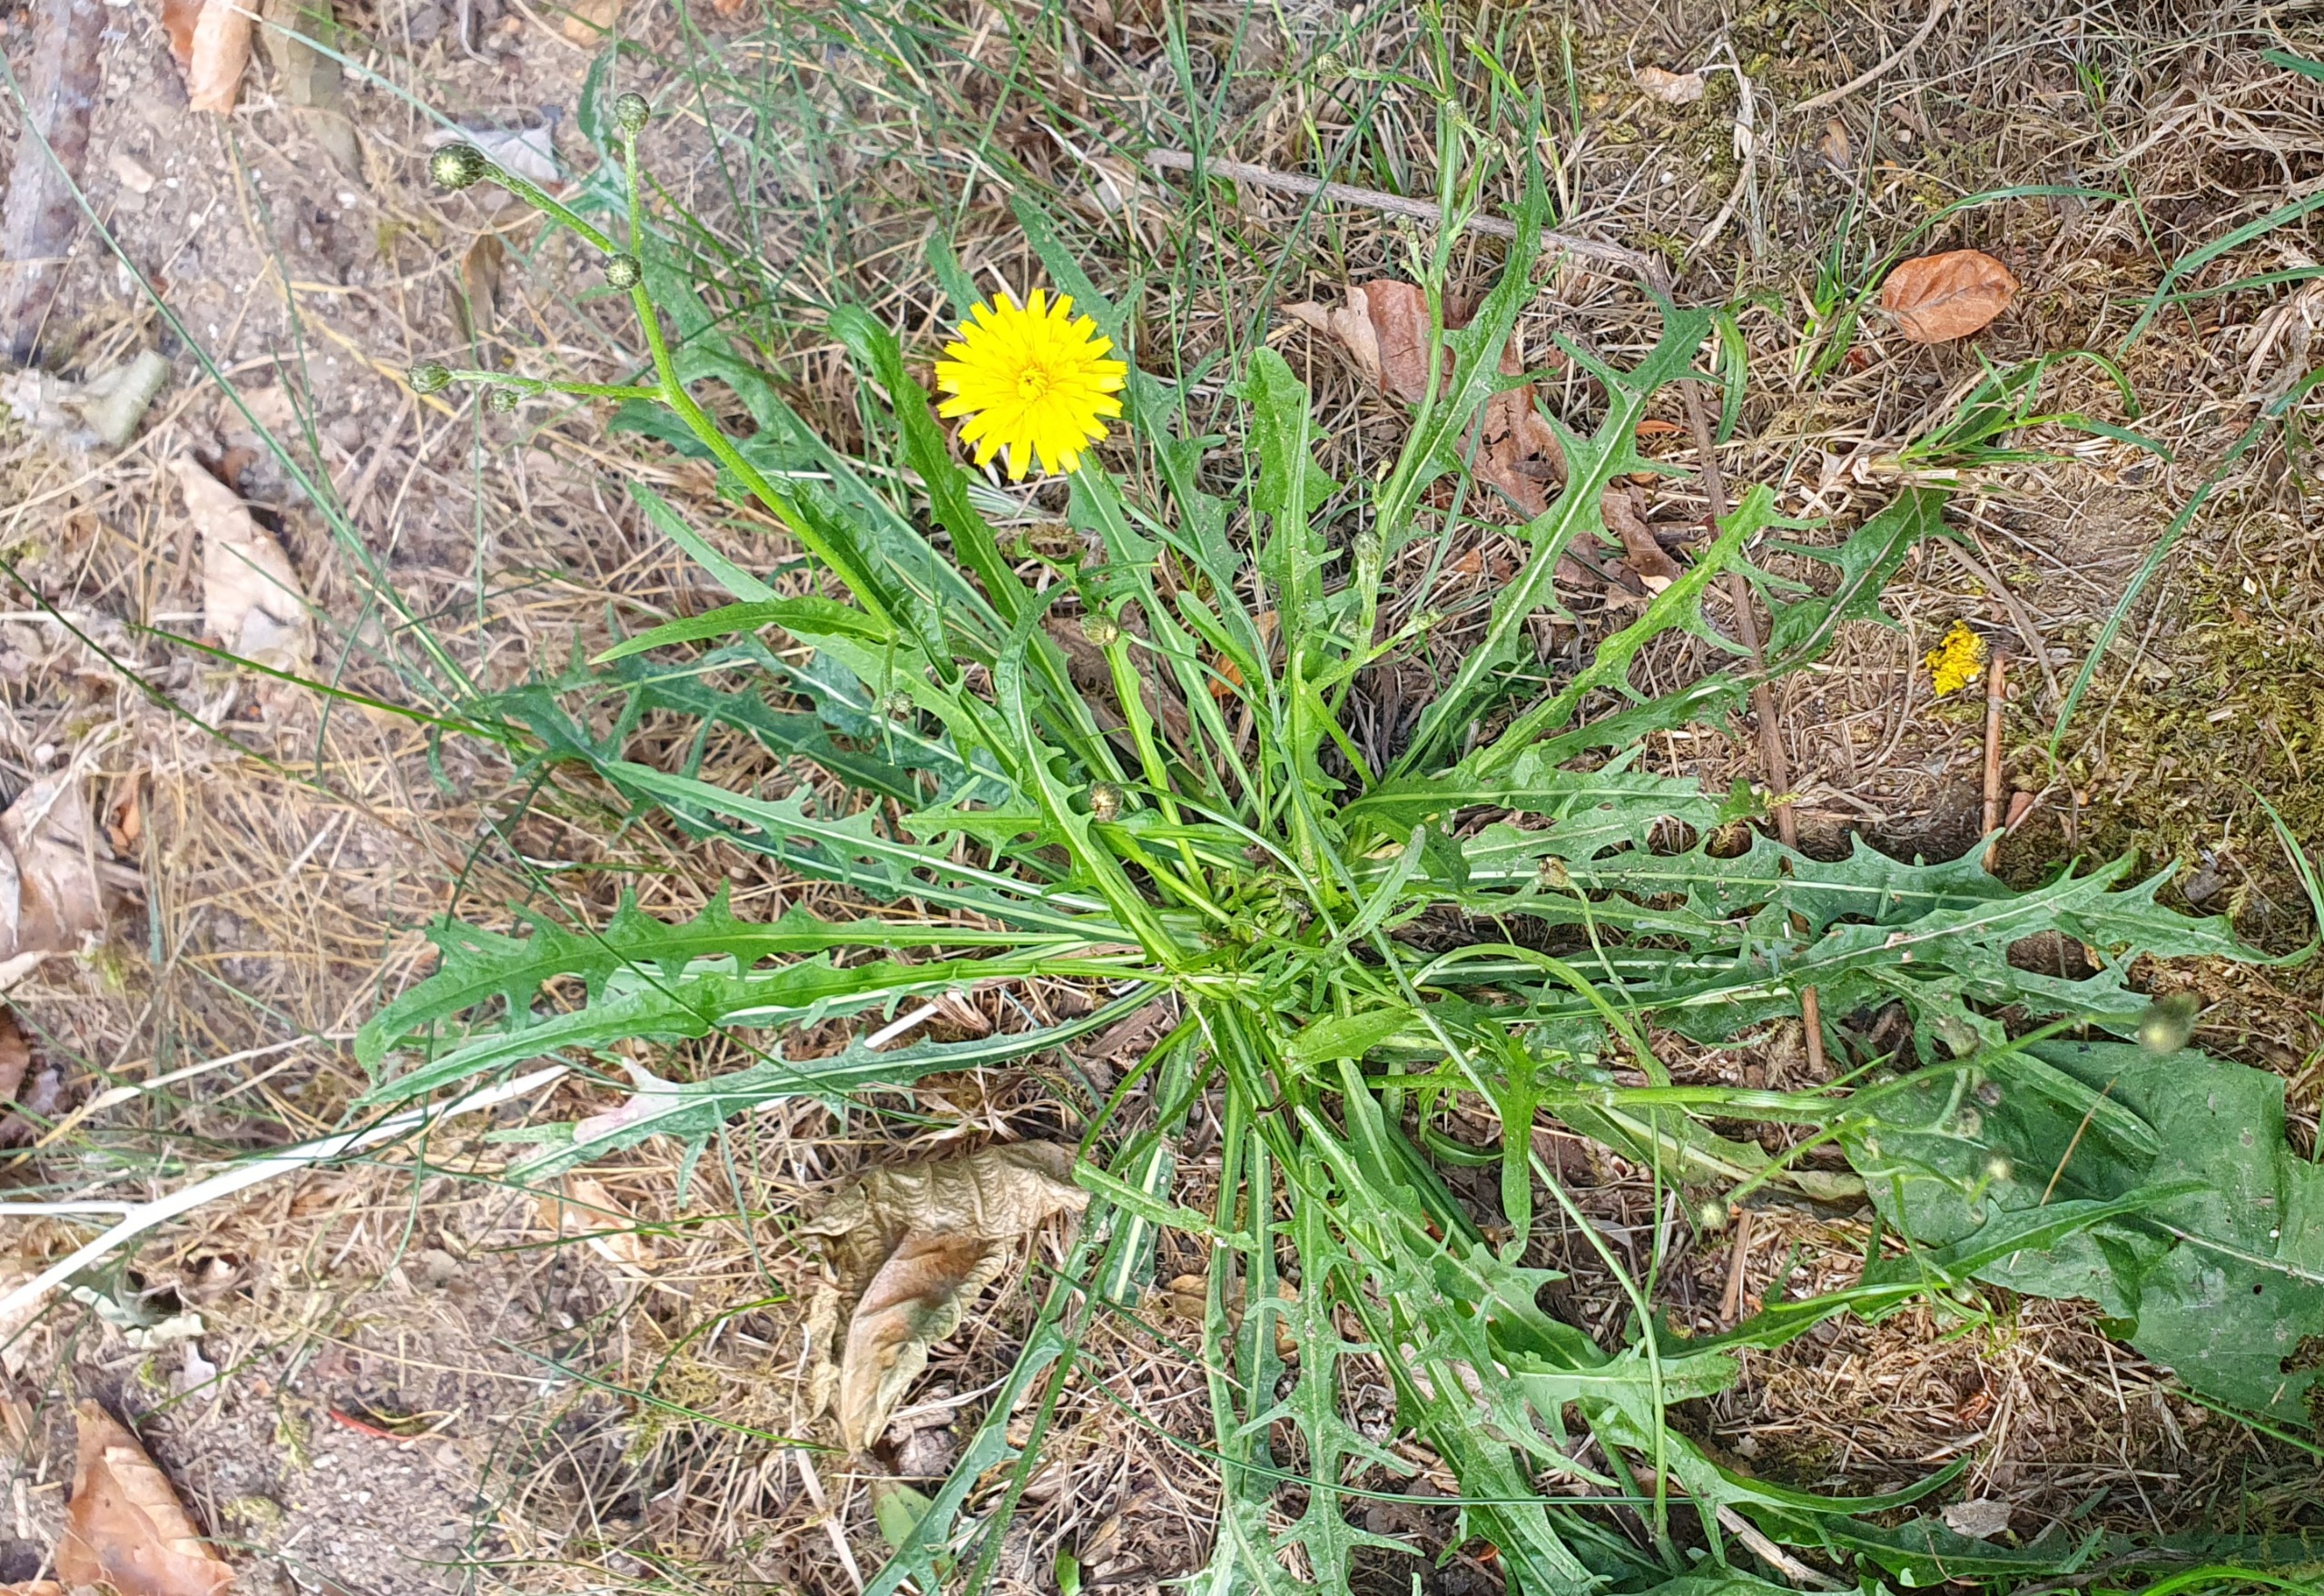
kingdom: Plantae
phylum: Tracheophyta
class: Magnoliopsida
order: Asterales
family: Asteraceae
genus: Scorzoneroides
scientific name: Scorzoneroides autumnalis
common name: Høst-borst
